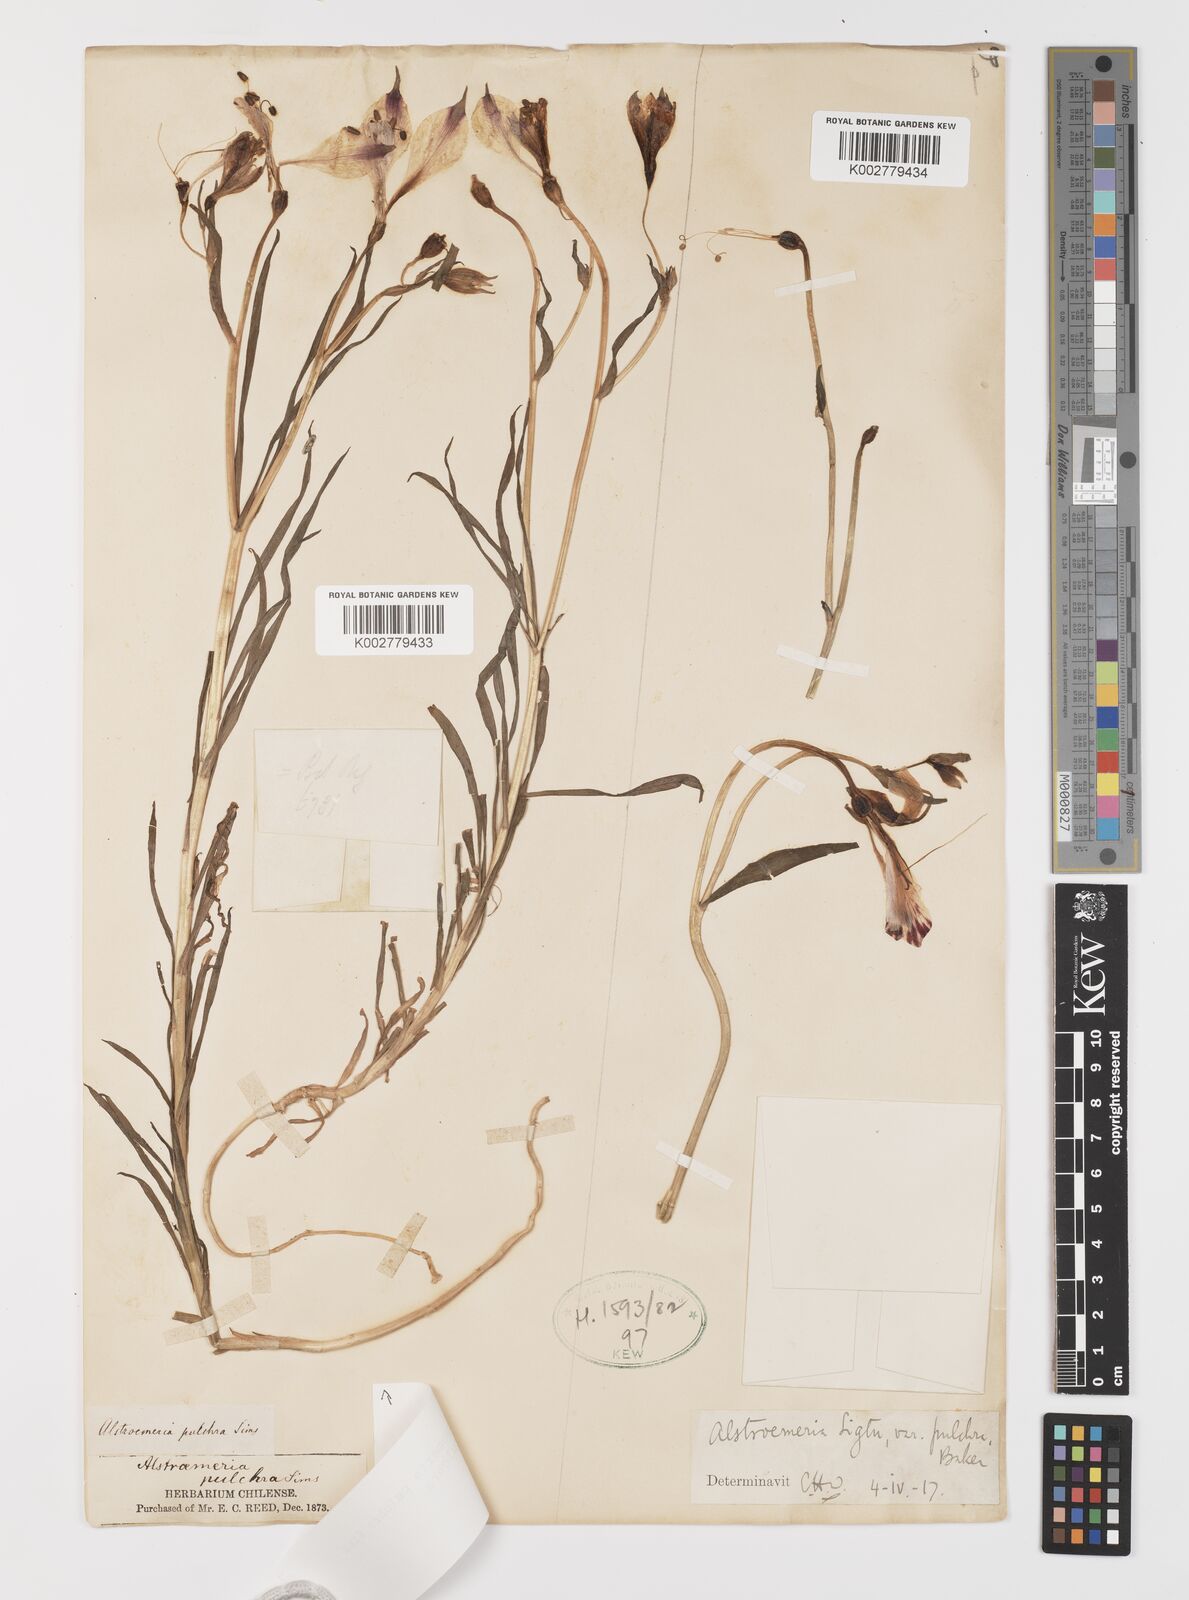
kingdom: Plantae
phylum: Tracheophyta
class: Liliopsida
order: Liliales
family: Alstroemeriaceae
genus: Alstroemeria
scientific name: Alstroemeria pulchra
